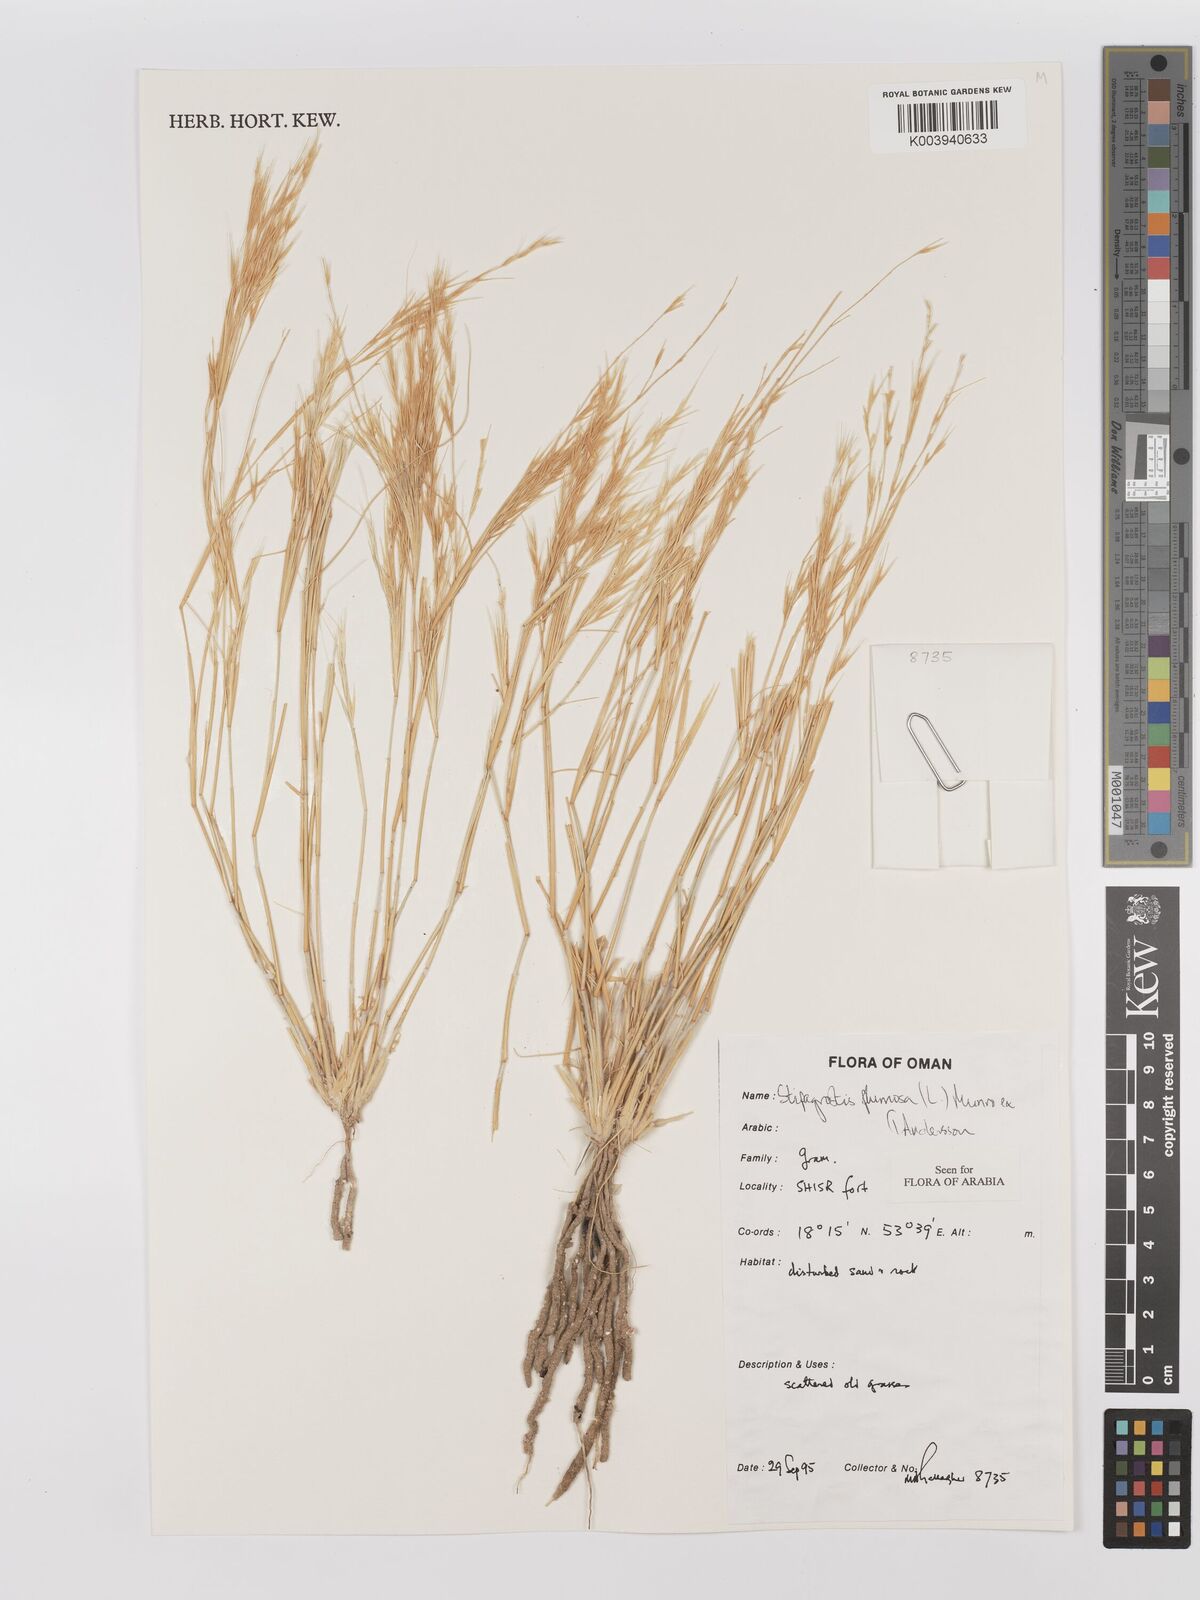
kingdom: Plantae
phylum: Tracheophyta
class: Liliopsida
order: Poales
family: Poaceae
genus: Stipagrostis
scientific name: Stipagrostis plumosa
